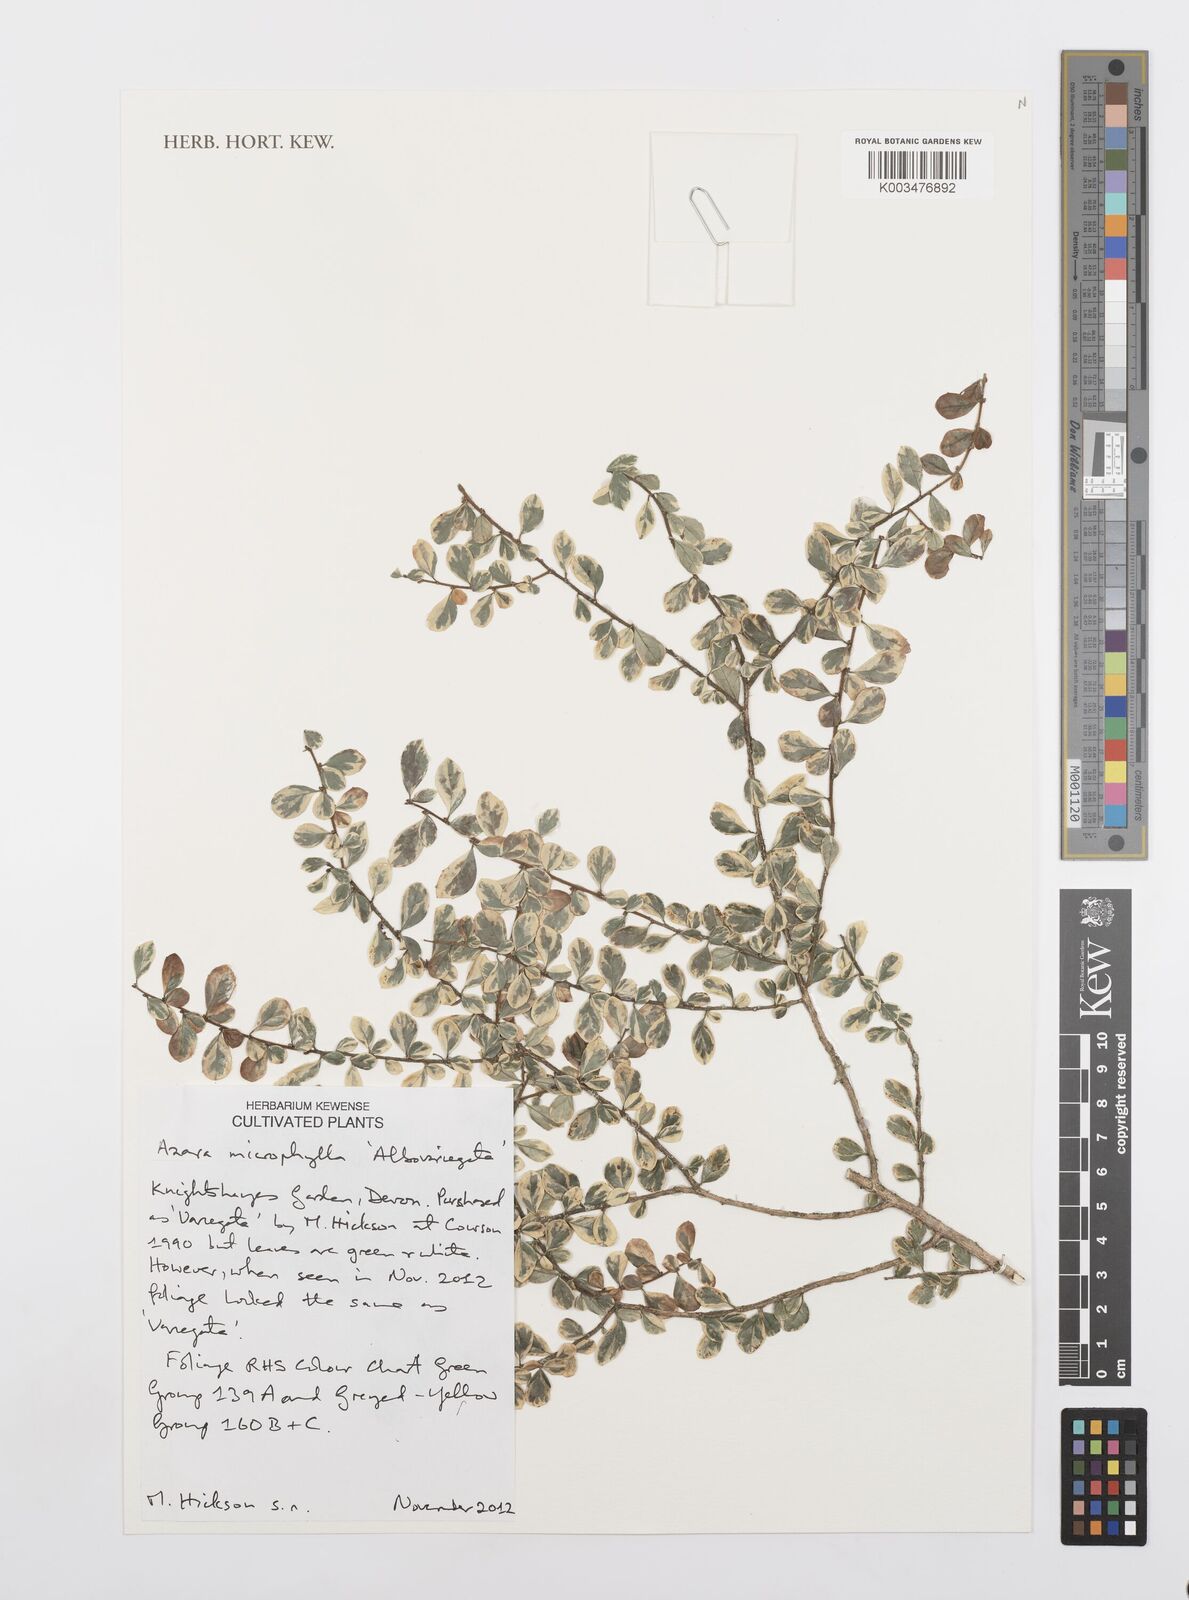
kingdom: Plantae
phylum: Tracheophyta
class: Magnoliopsida
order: Malpighiales
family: Salicaceae
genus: Azara
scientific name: Azara microphylla
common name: Box-leaf azara
